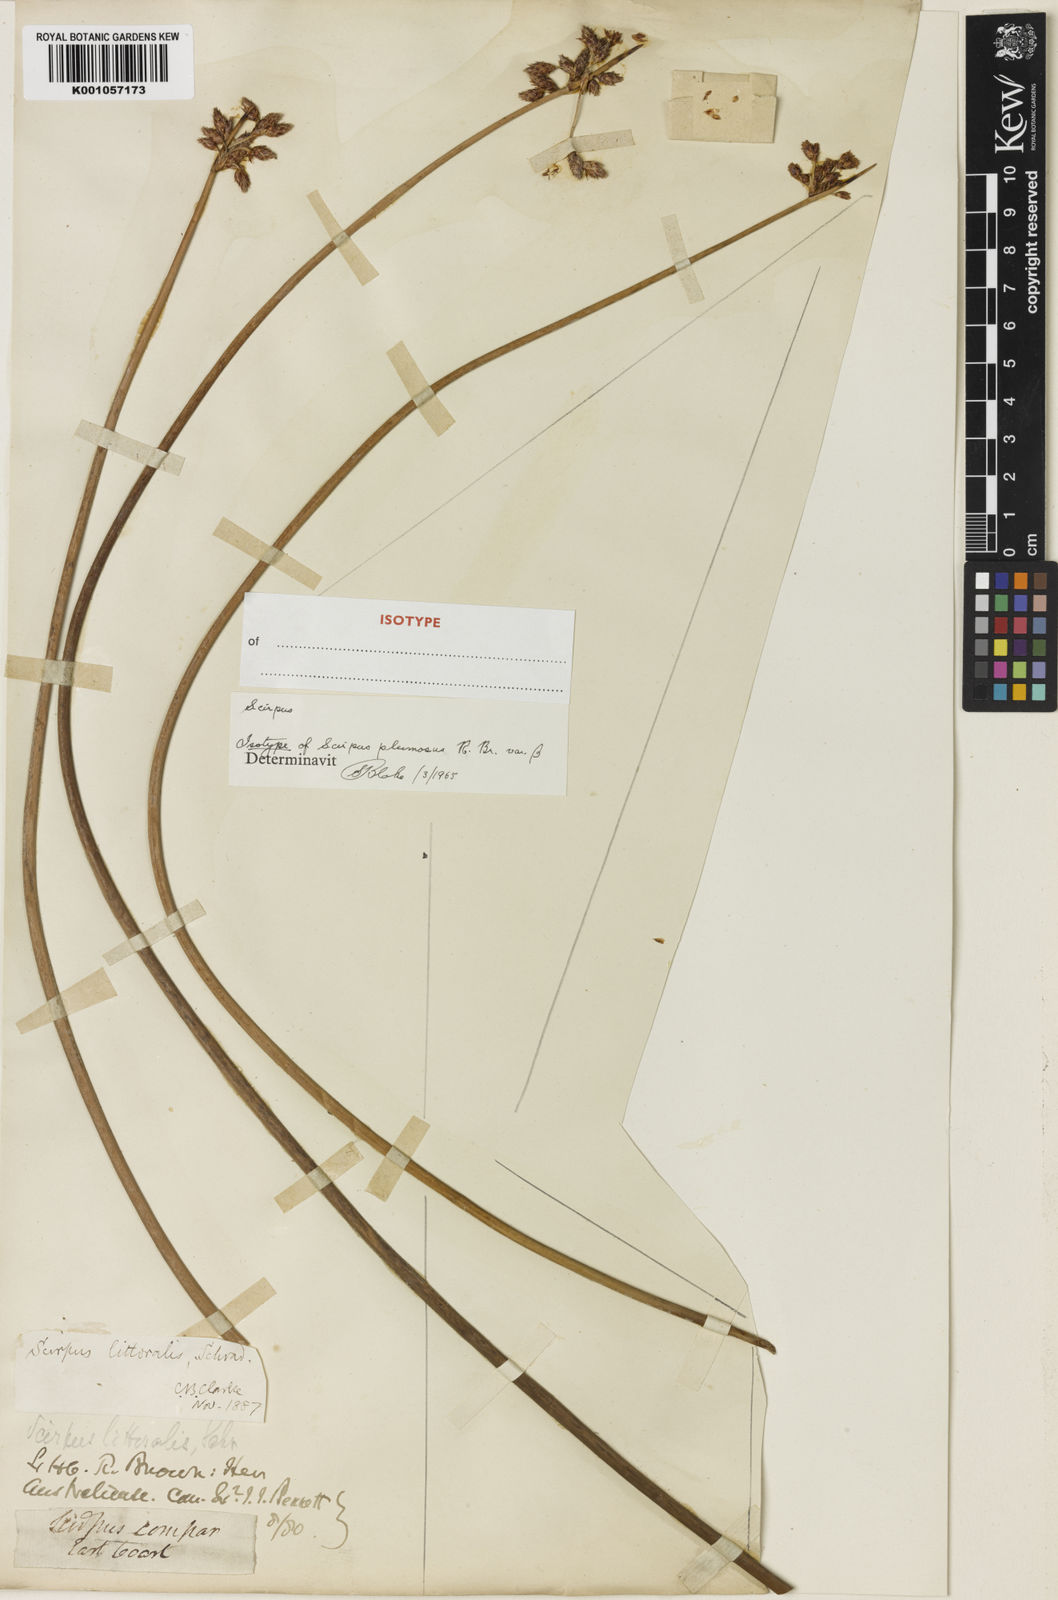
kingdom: Plantae
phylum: Tracheophyta
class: Liliopsida
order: Poales
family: Cyperaceae
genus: Schoenoplectus
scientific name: Schoenoplectus litoralis
